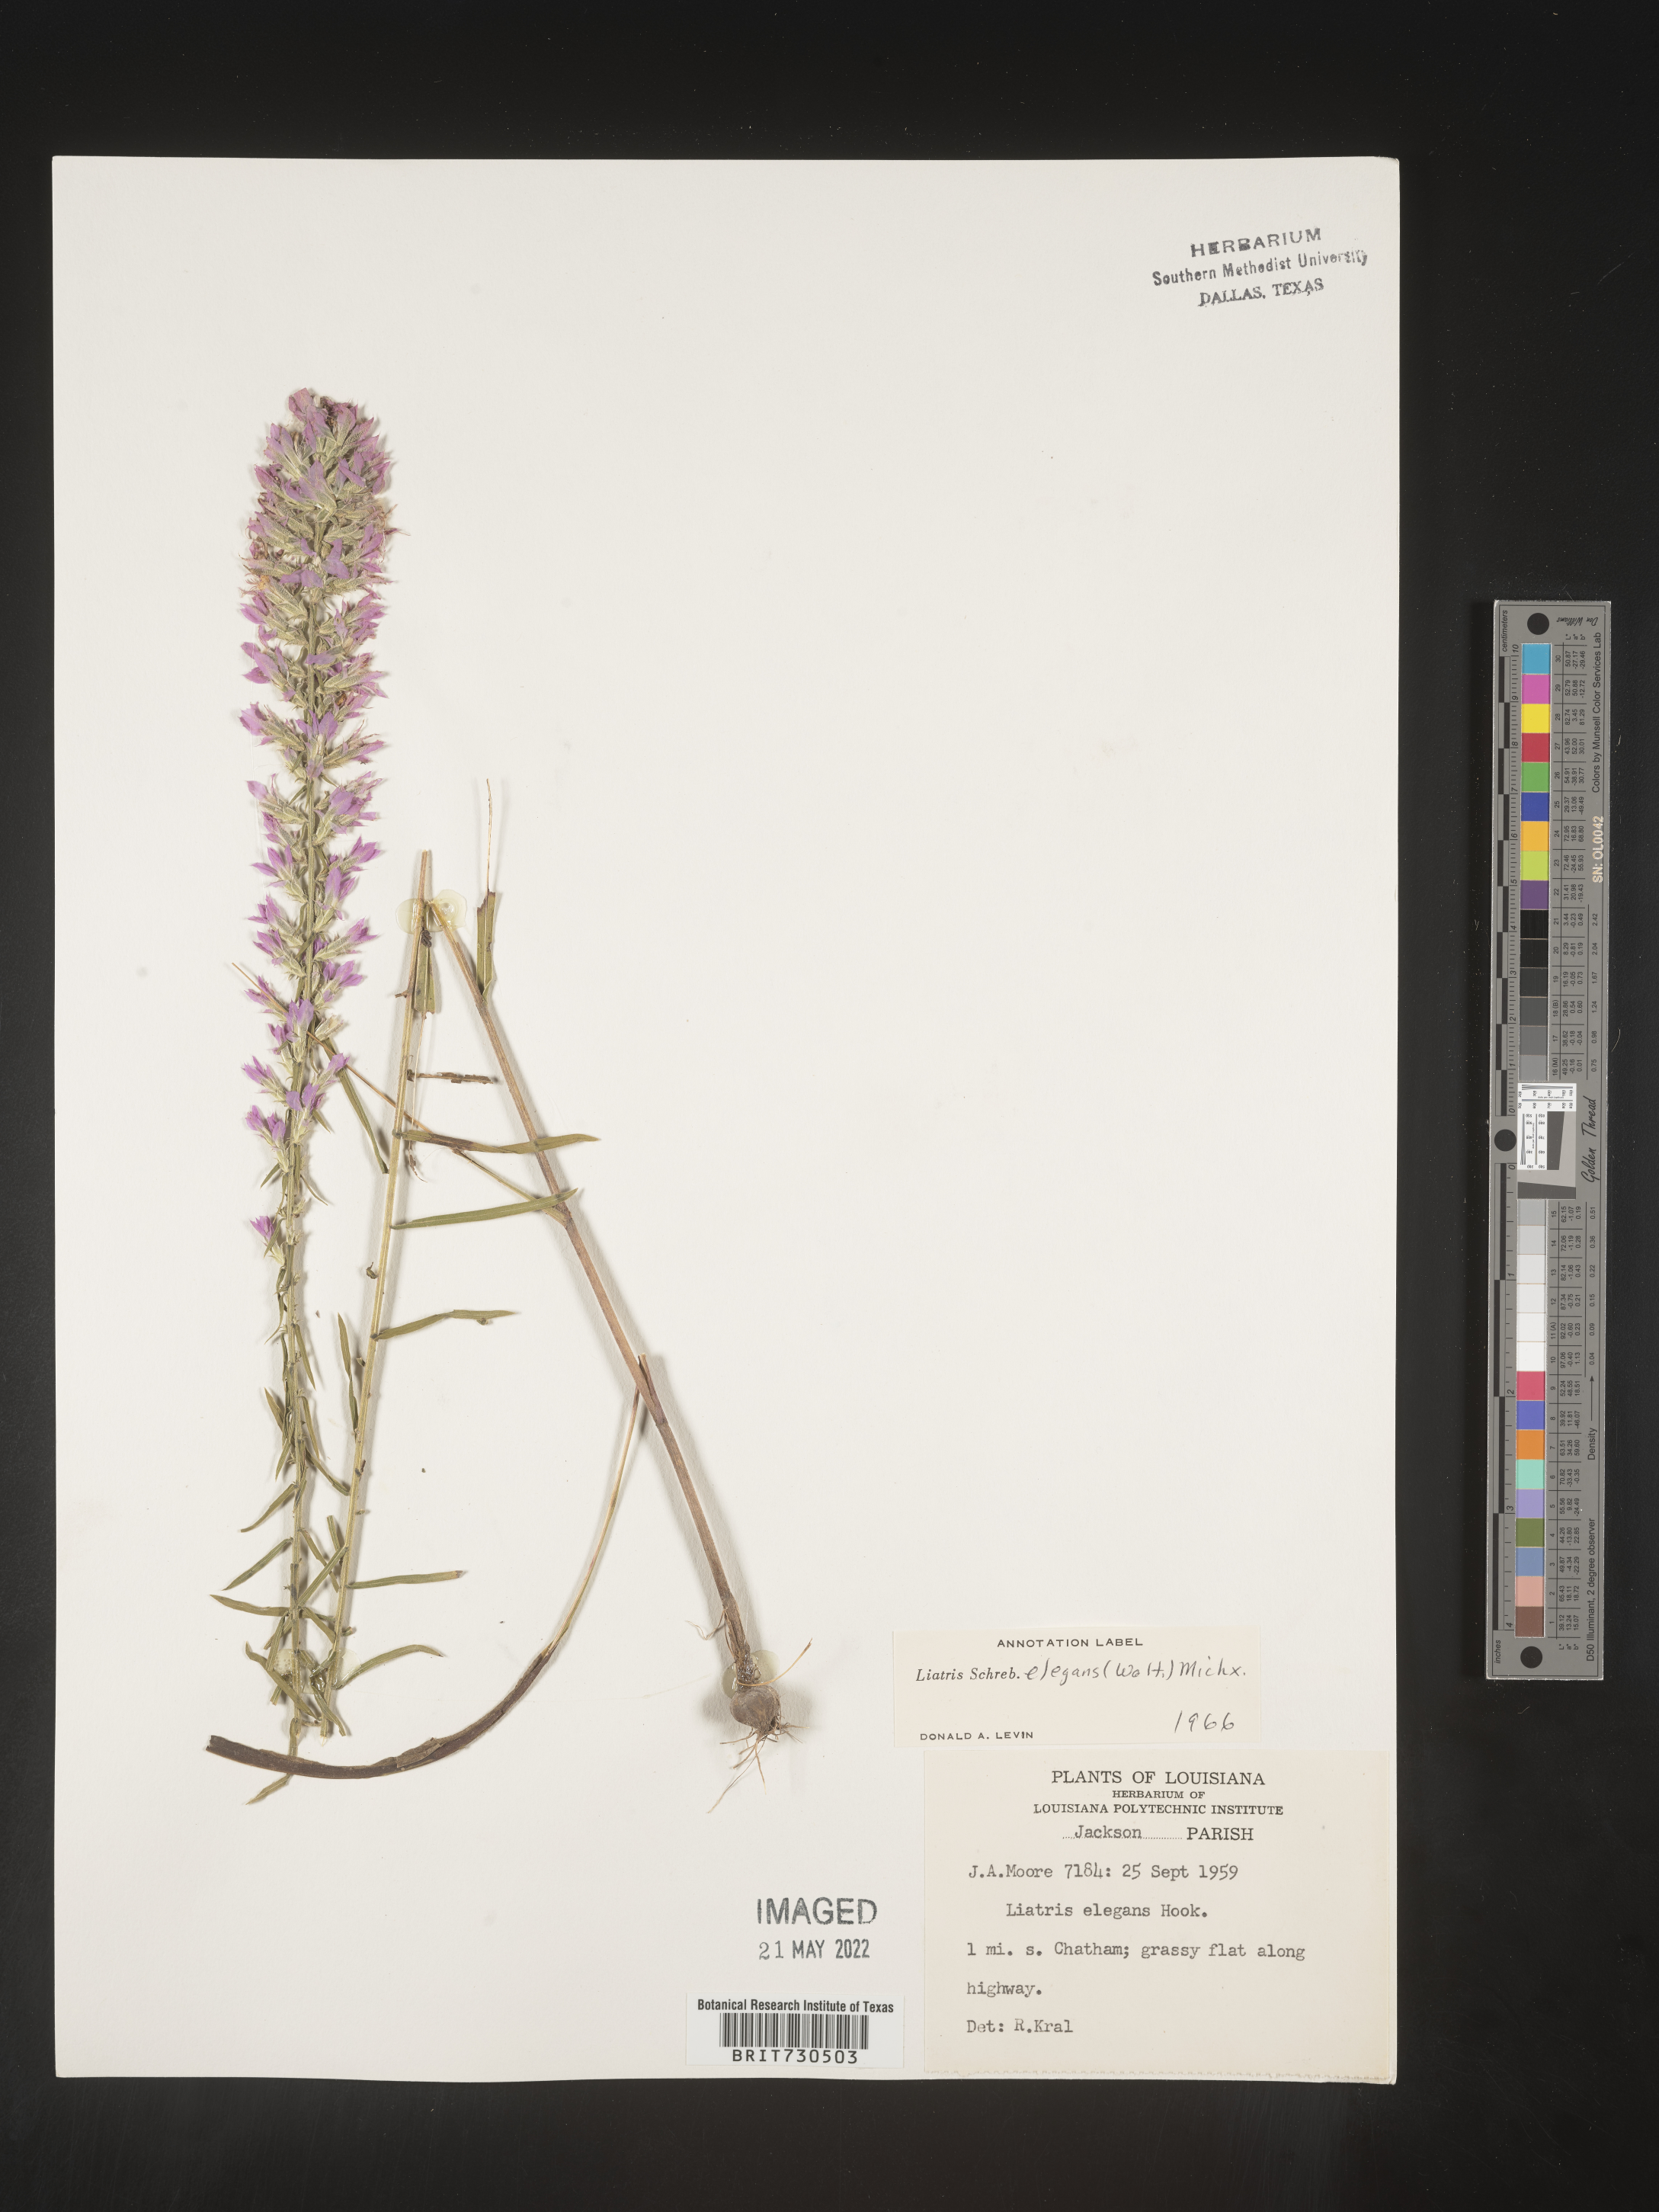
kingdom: Plantae
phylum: Tracheophyta
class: Magnoliopsida
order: Asterales
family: Asteraceae
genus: Liatris
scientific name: Liatris elegans
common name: Pinkscale gayfeather
